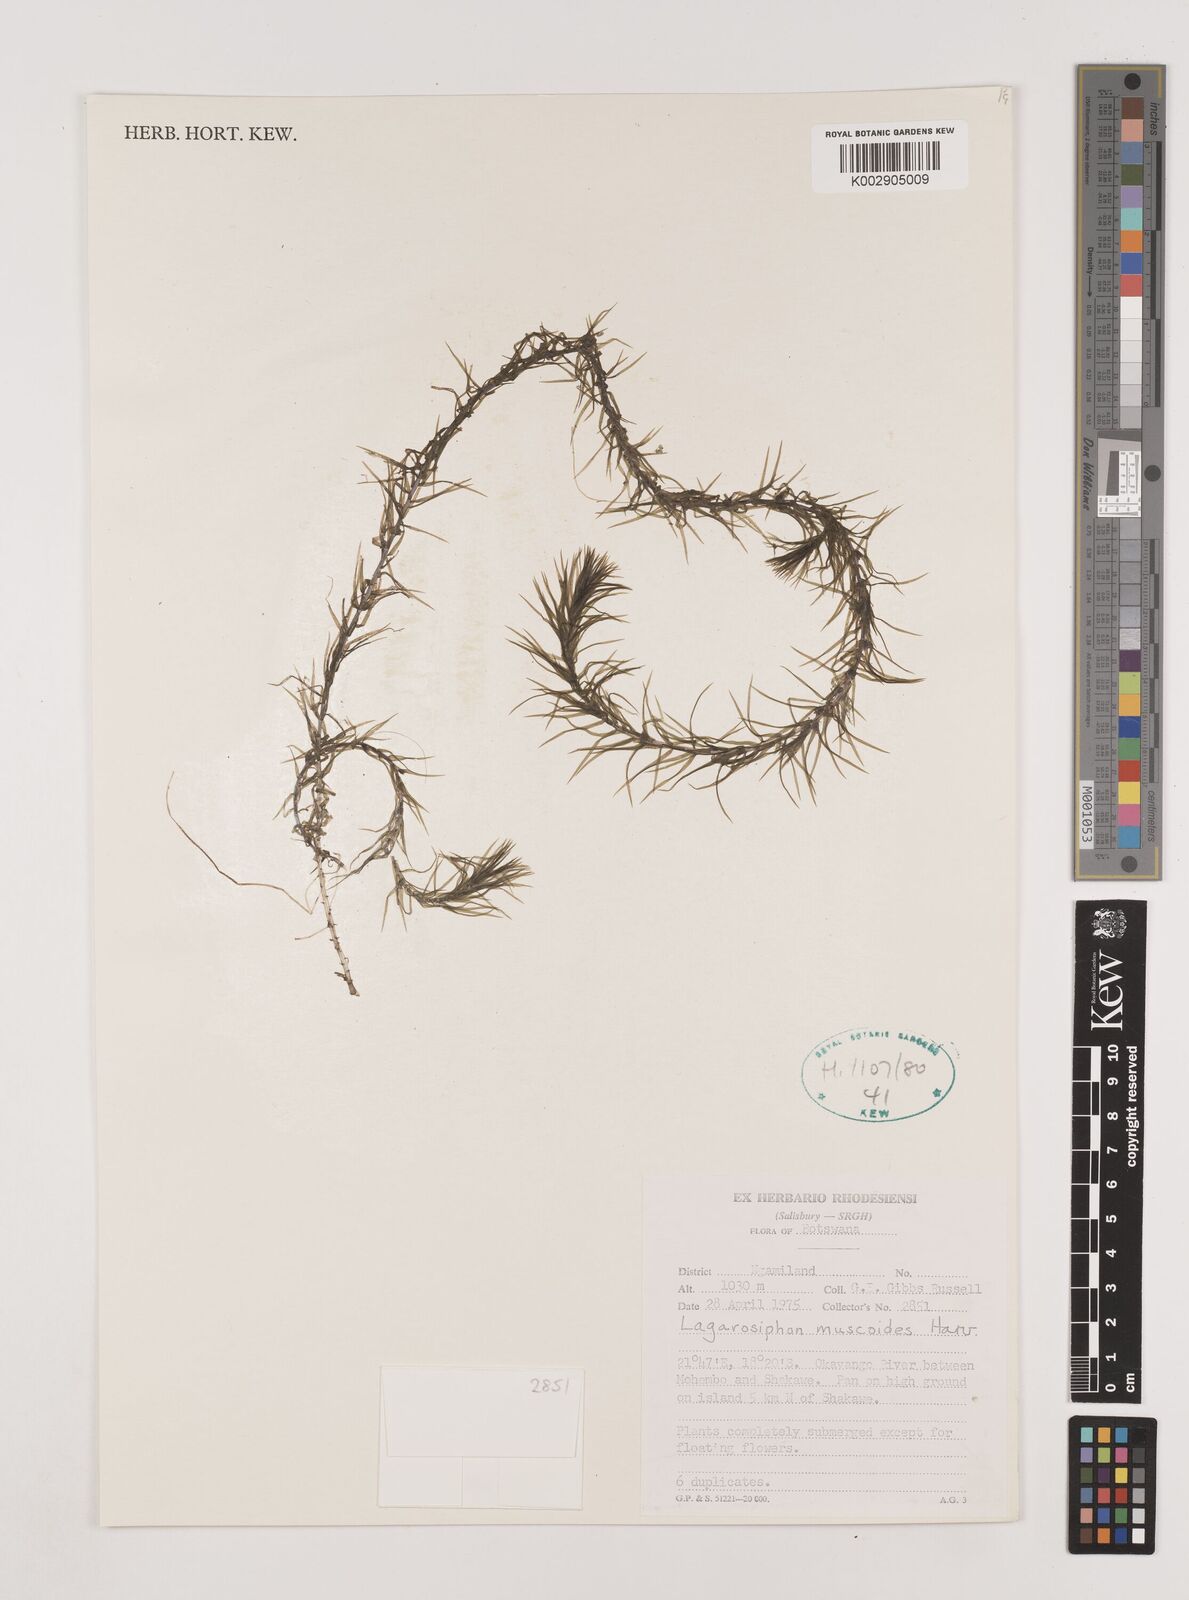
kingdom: Plantae
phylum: Tracheophyta
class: Liliopsida
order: Alismatales
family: Hydrocharitaceae
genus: Lagarosiphon
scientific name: Lagarosiphon muscoides
